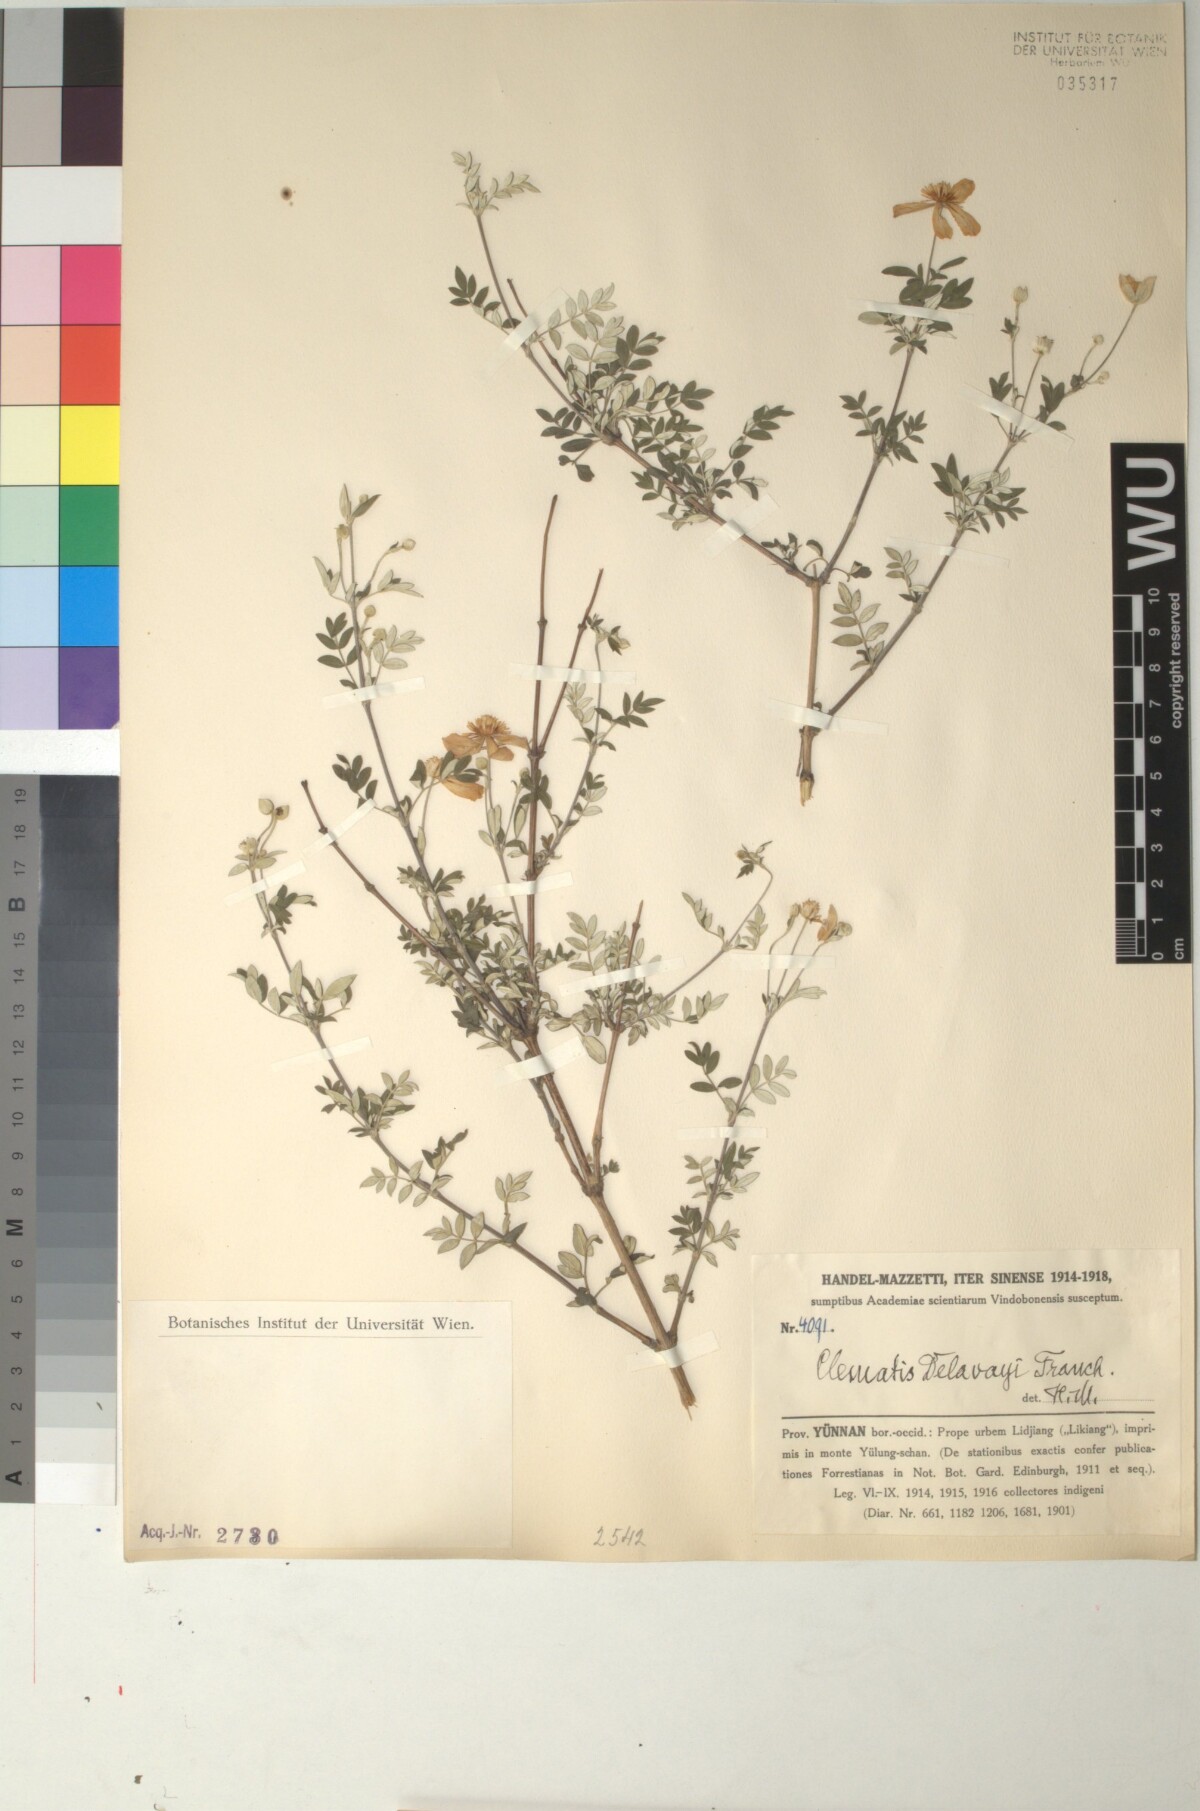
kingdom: Plantae
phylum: Tracheophyta
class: Magnoliopsida
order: Ranunculales
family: Ranunculaceae
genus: Clematis
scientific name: Clematis delavayi
